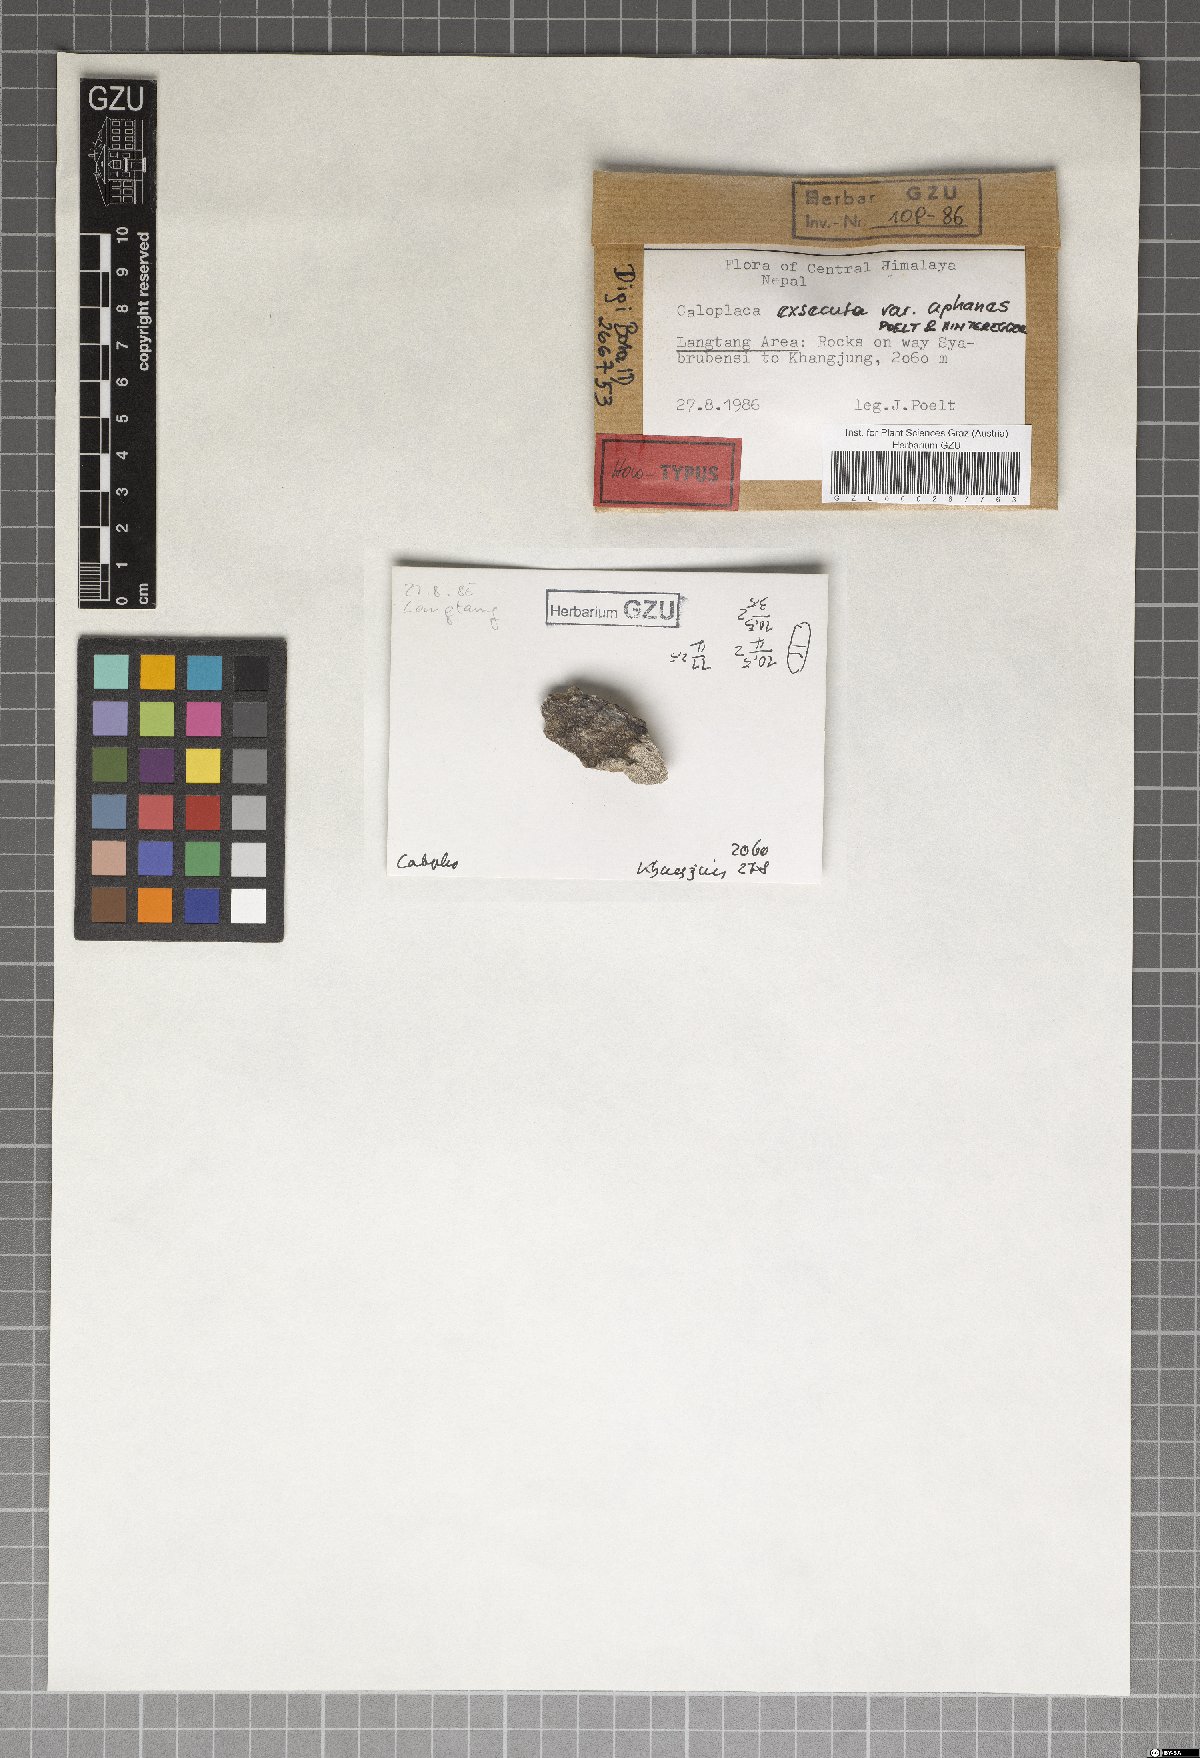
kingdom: Fungi
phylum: Ascomycota
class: Lecanoromycetes
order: Teloschistales
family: Teloschistaceae
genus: Lendemeriella
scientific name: Lendemeriella exsecuta
